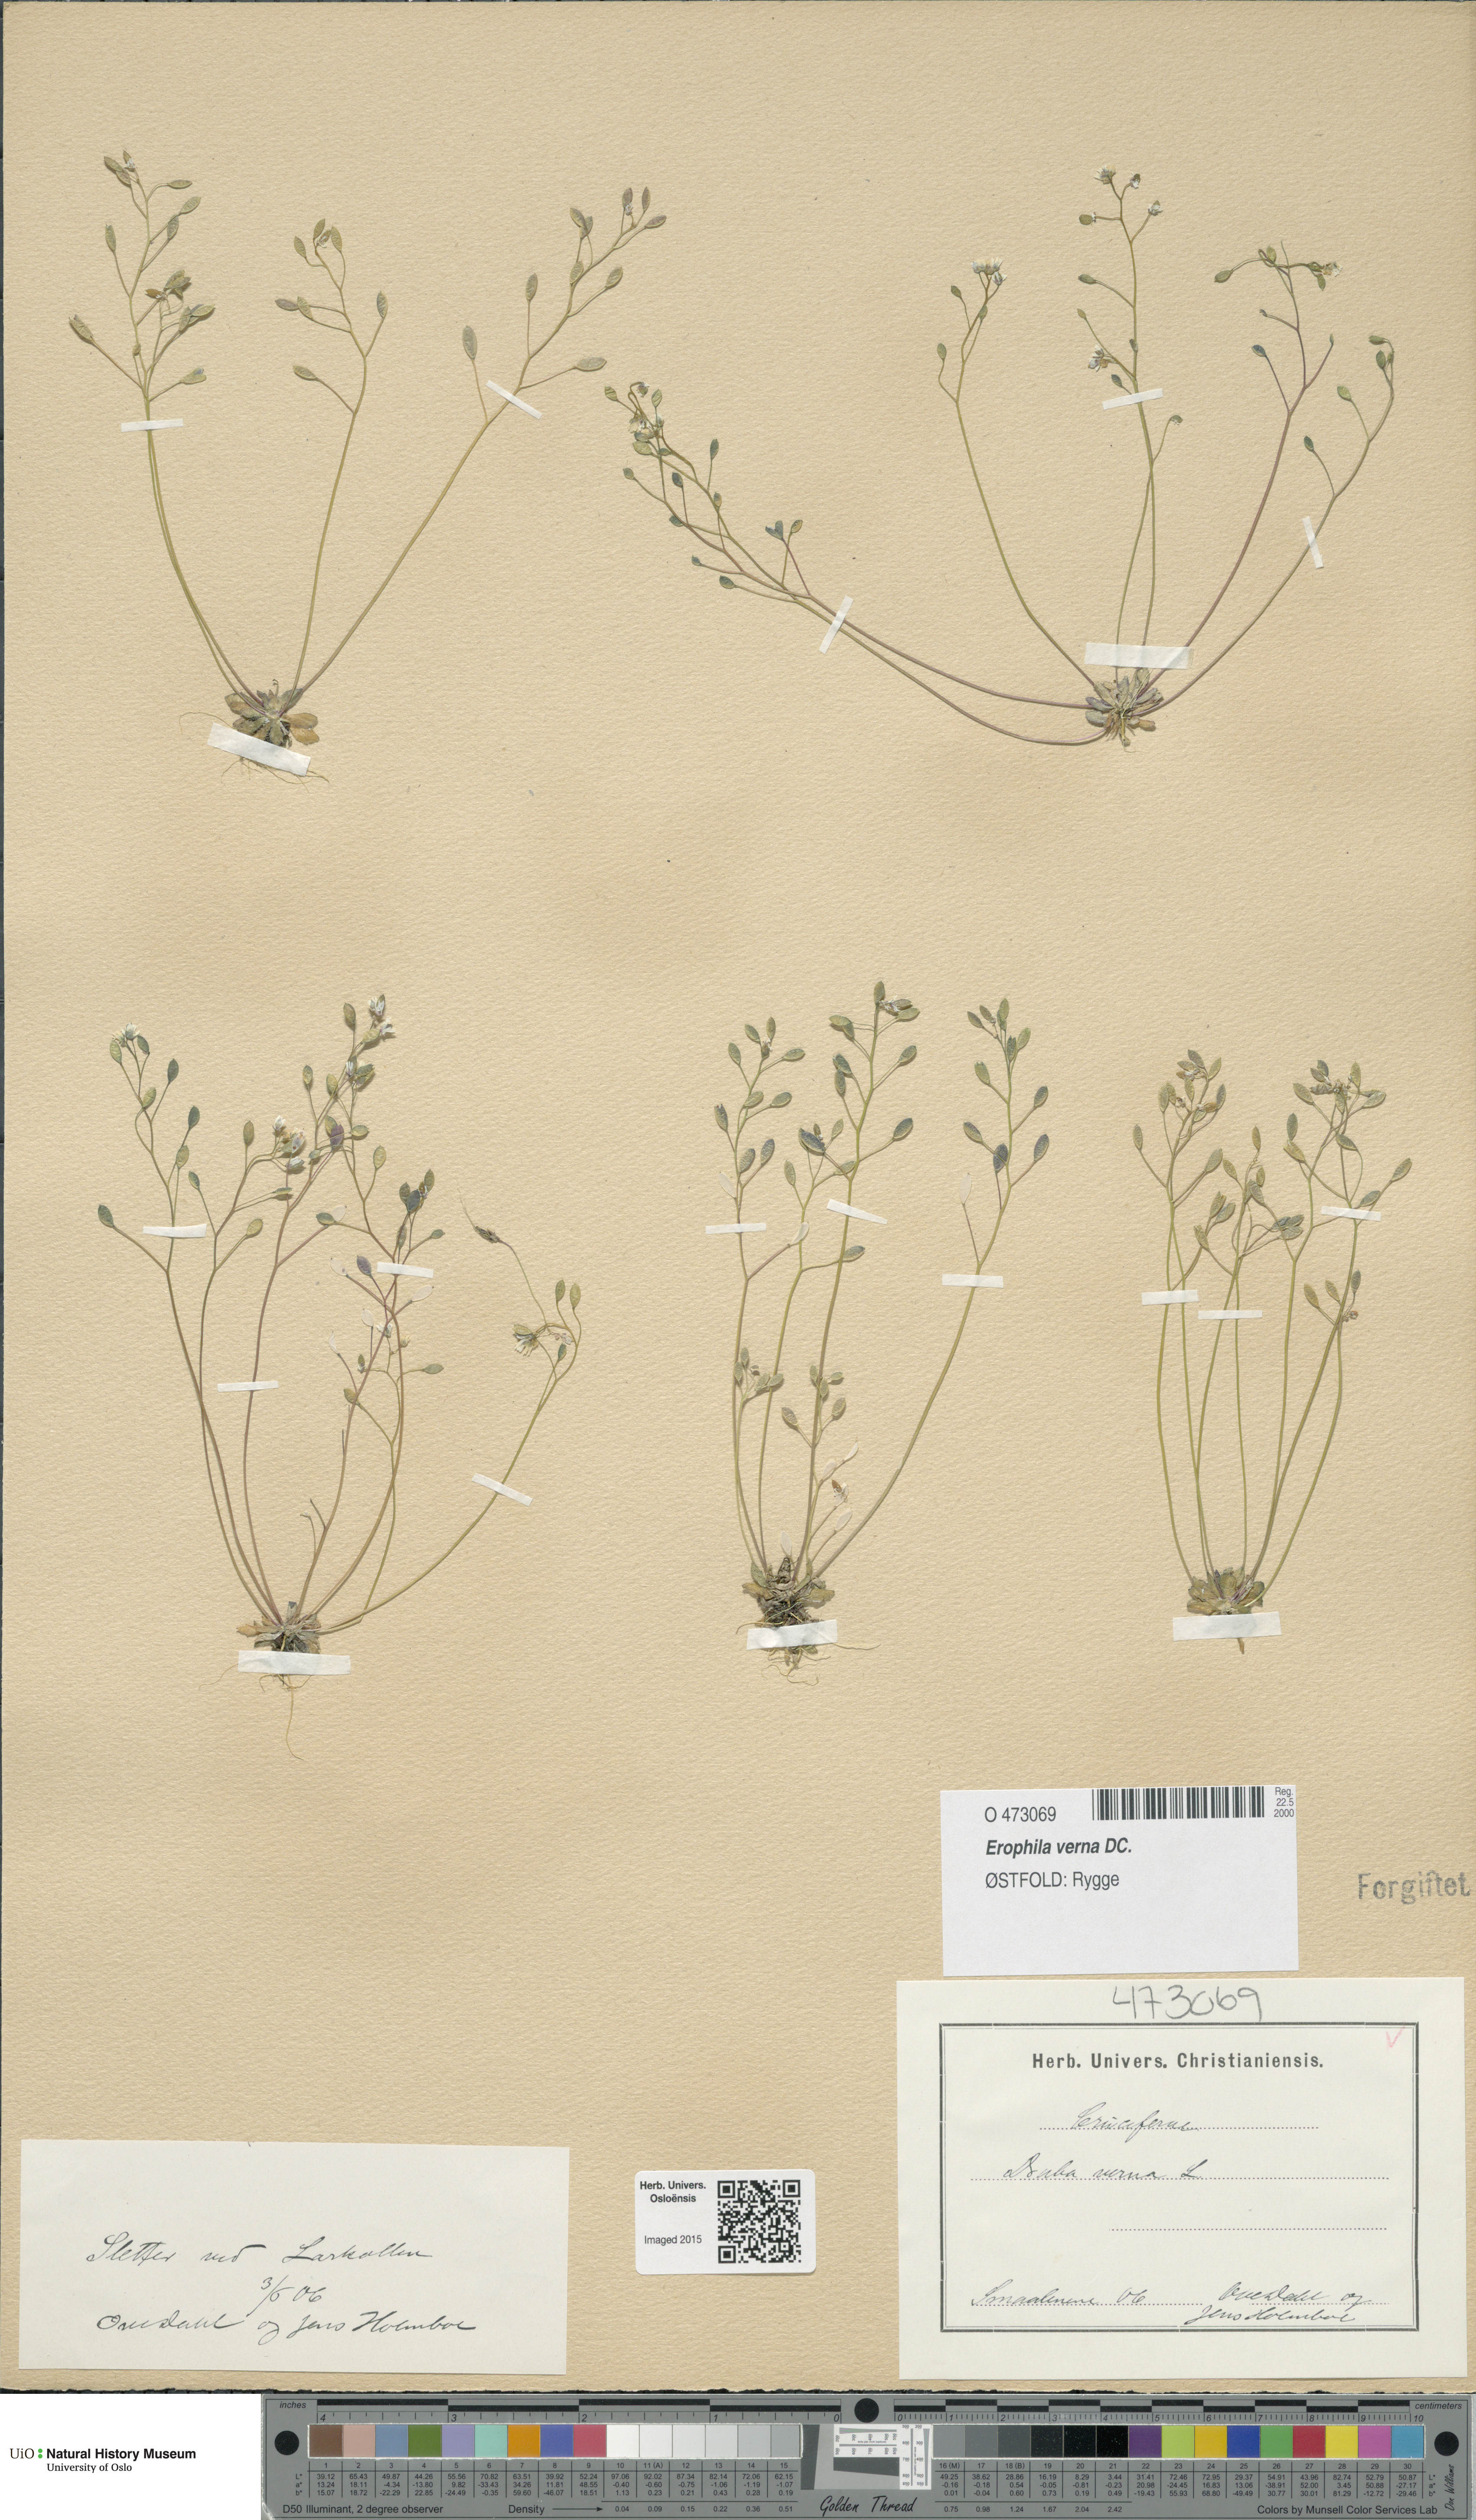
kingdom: Plantae
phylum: Tracheophyta
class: Magnoliopsida
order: Brassicales
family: Brassicaceae
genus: Draba
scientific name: Draba verna
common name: Spring draba
